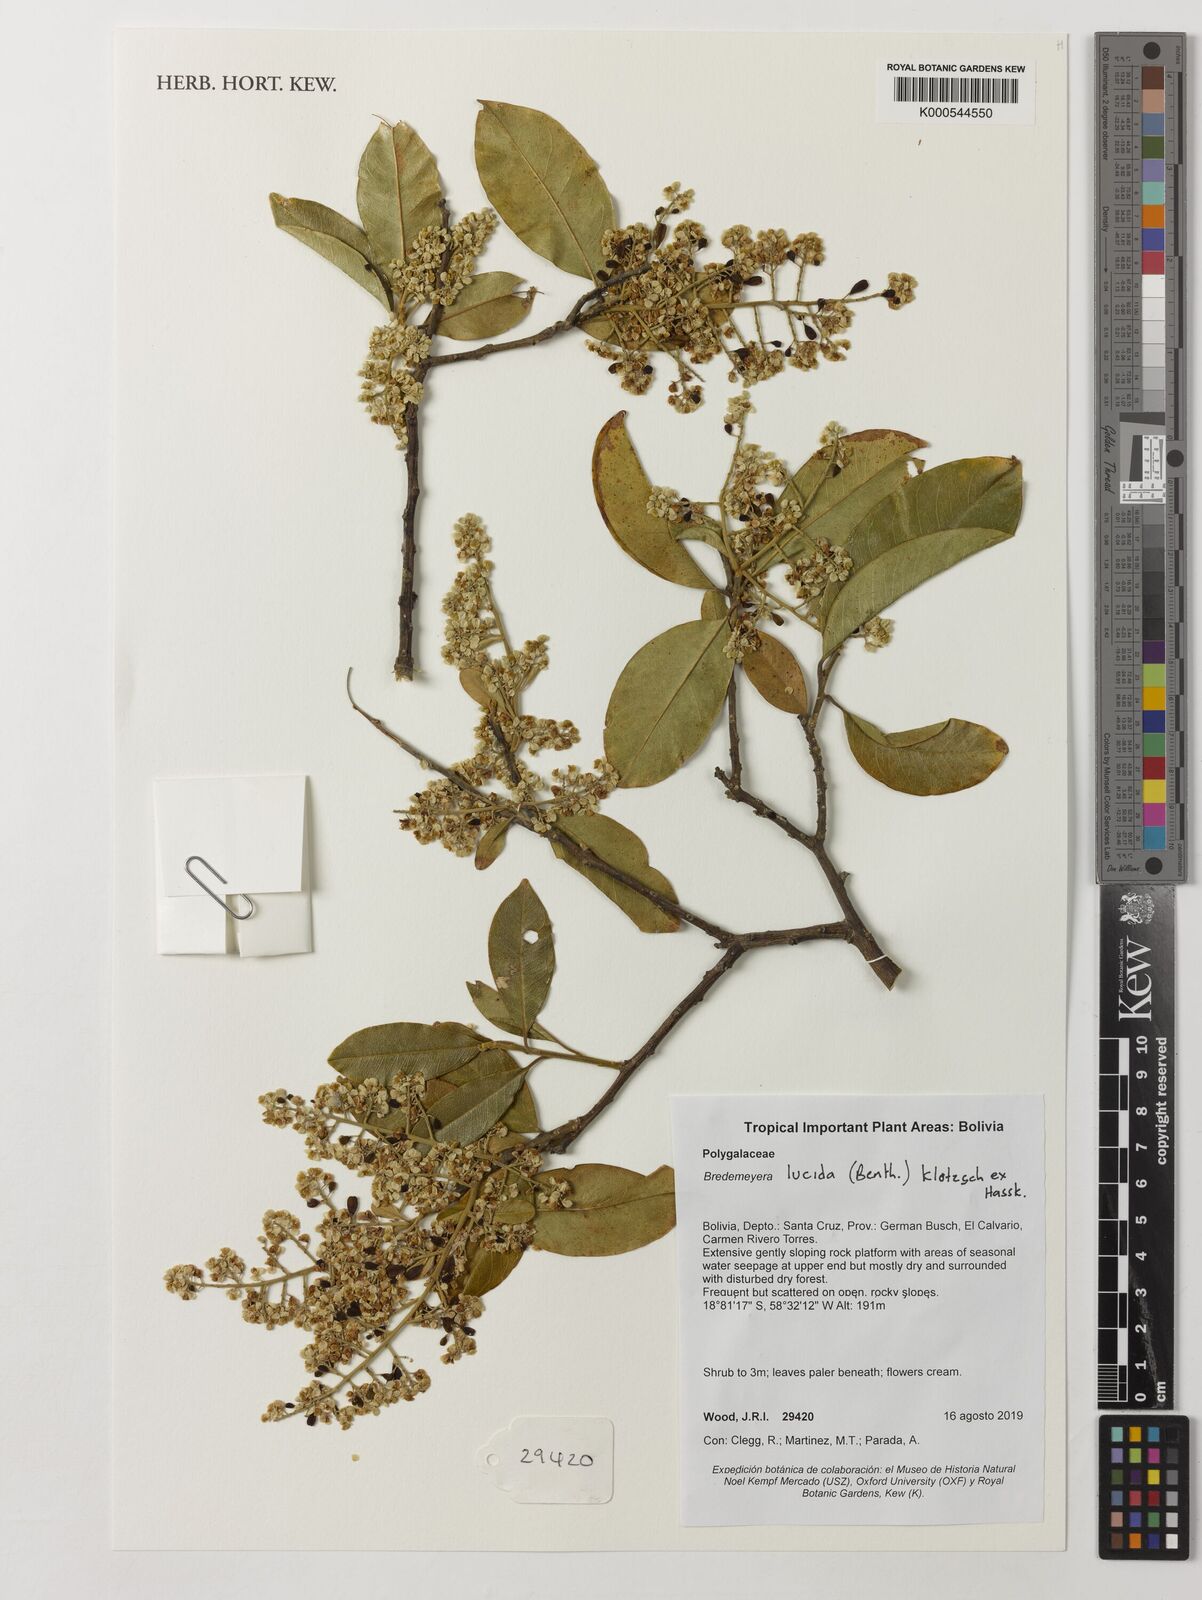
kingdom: Plantae
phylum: Tracheophyta
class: Magnoliopsida
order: Fabales
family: Polygalaceae
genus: Bredemeyera
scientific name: Bredemeyera lucida
